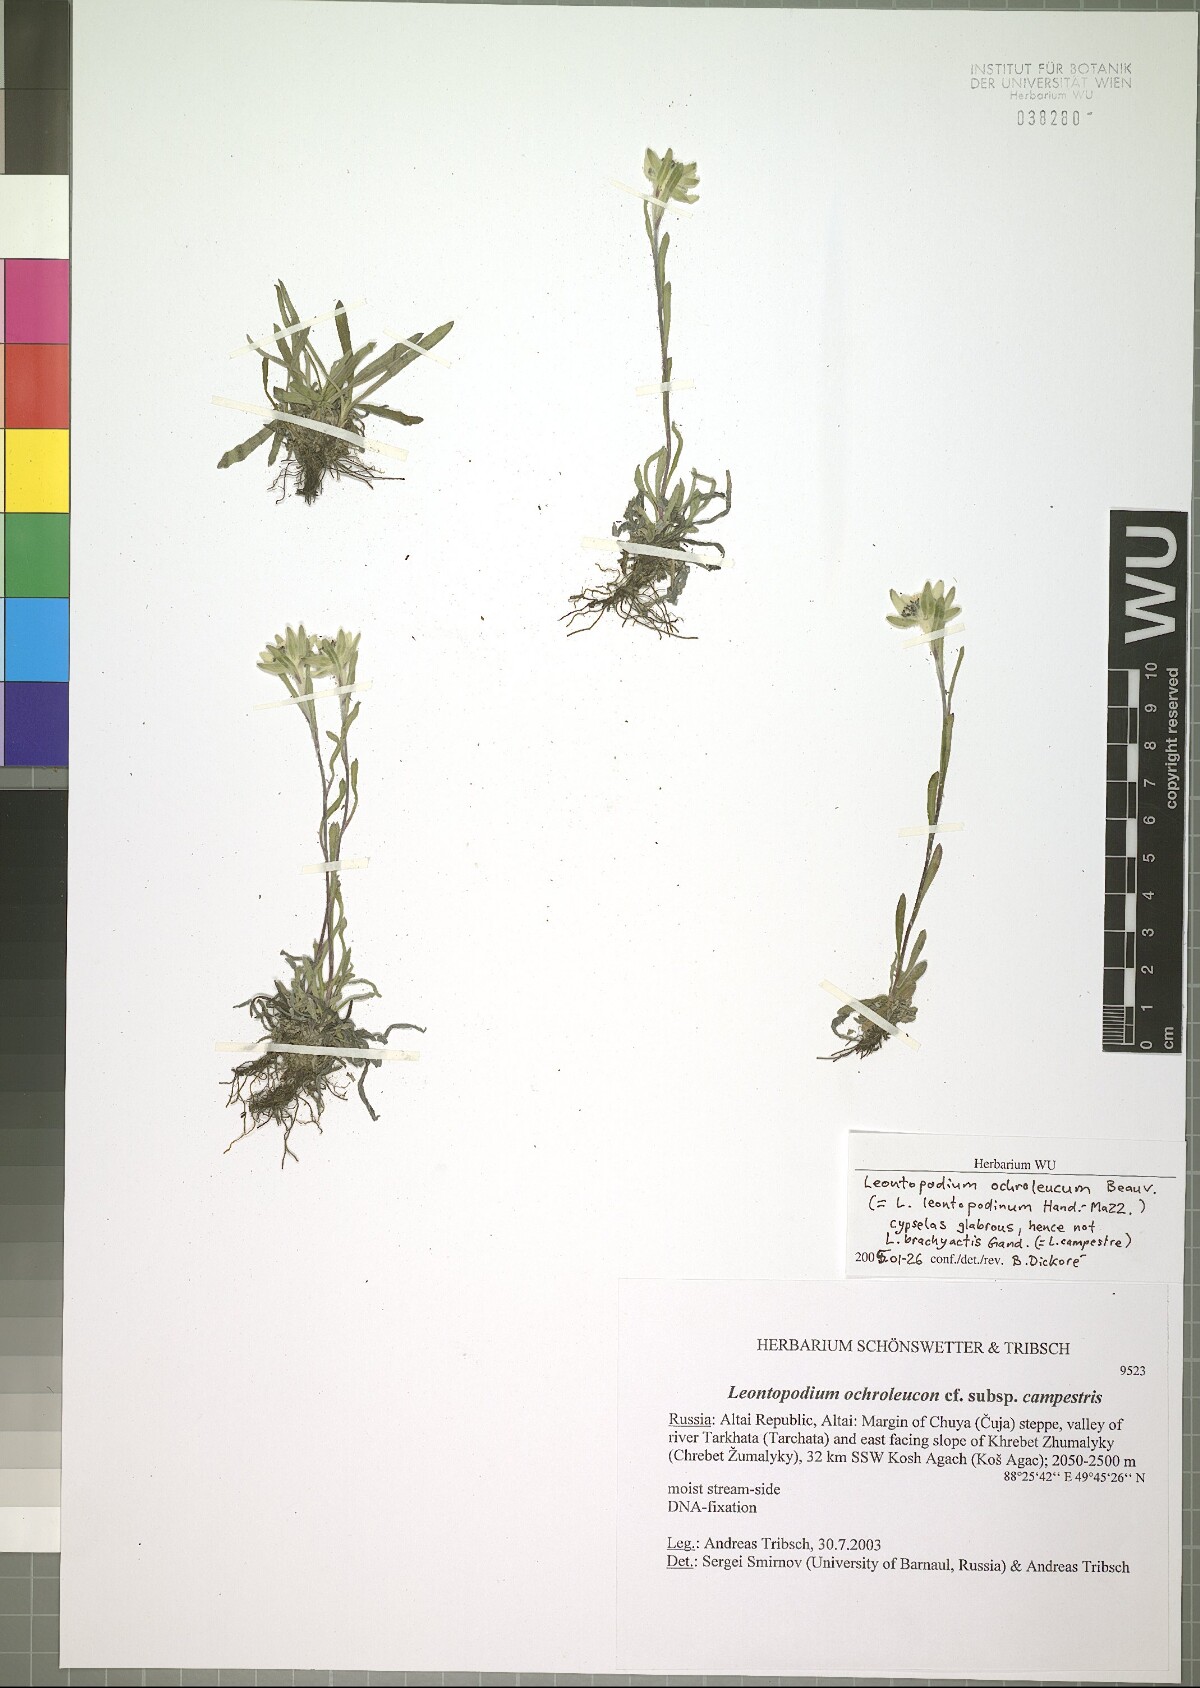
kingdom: Plantae
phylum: Tracheophyta
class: Magnoliopsida
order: Asterales
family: Asteraceae
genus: Leontopodium
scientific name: Leontopodium leontopodinum
